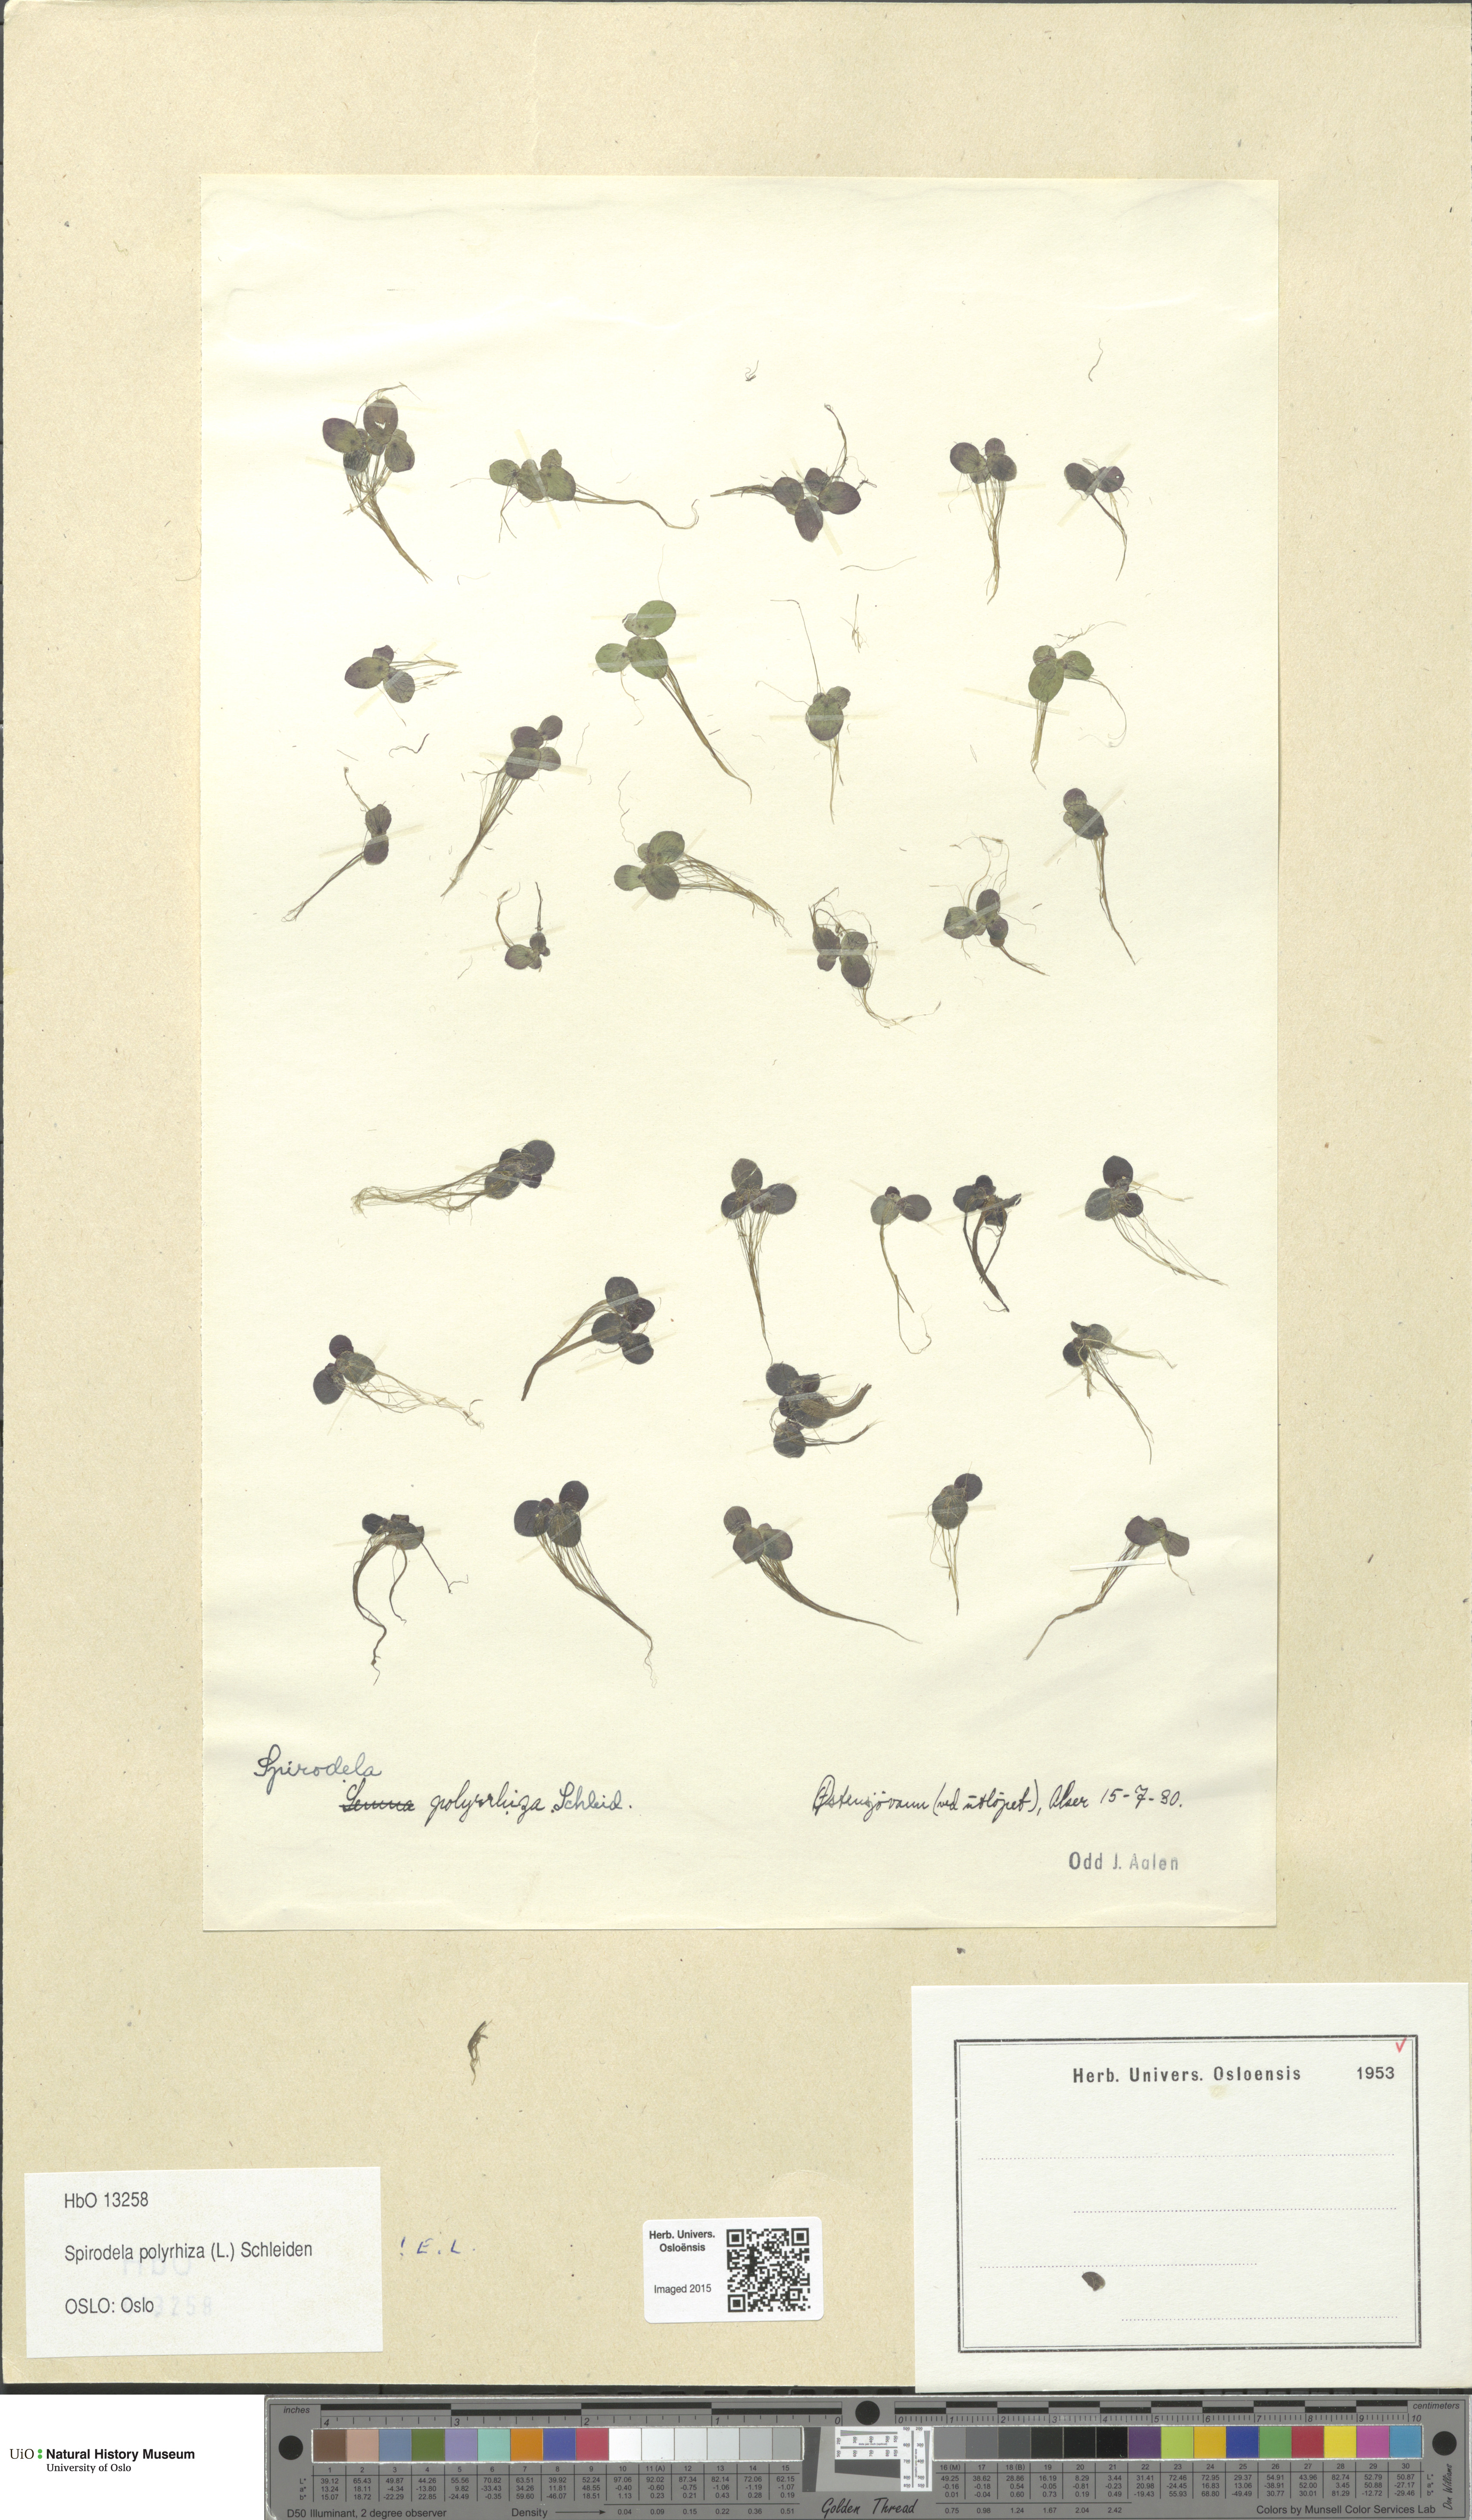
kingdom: Plantae
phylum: Tracheophyta
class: Liliopsida
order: Alismatales
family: Araceae
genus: Spirodela
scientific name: Spirodela polyrhiza
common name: Great duckweed
